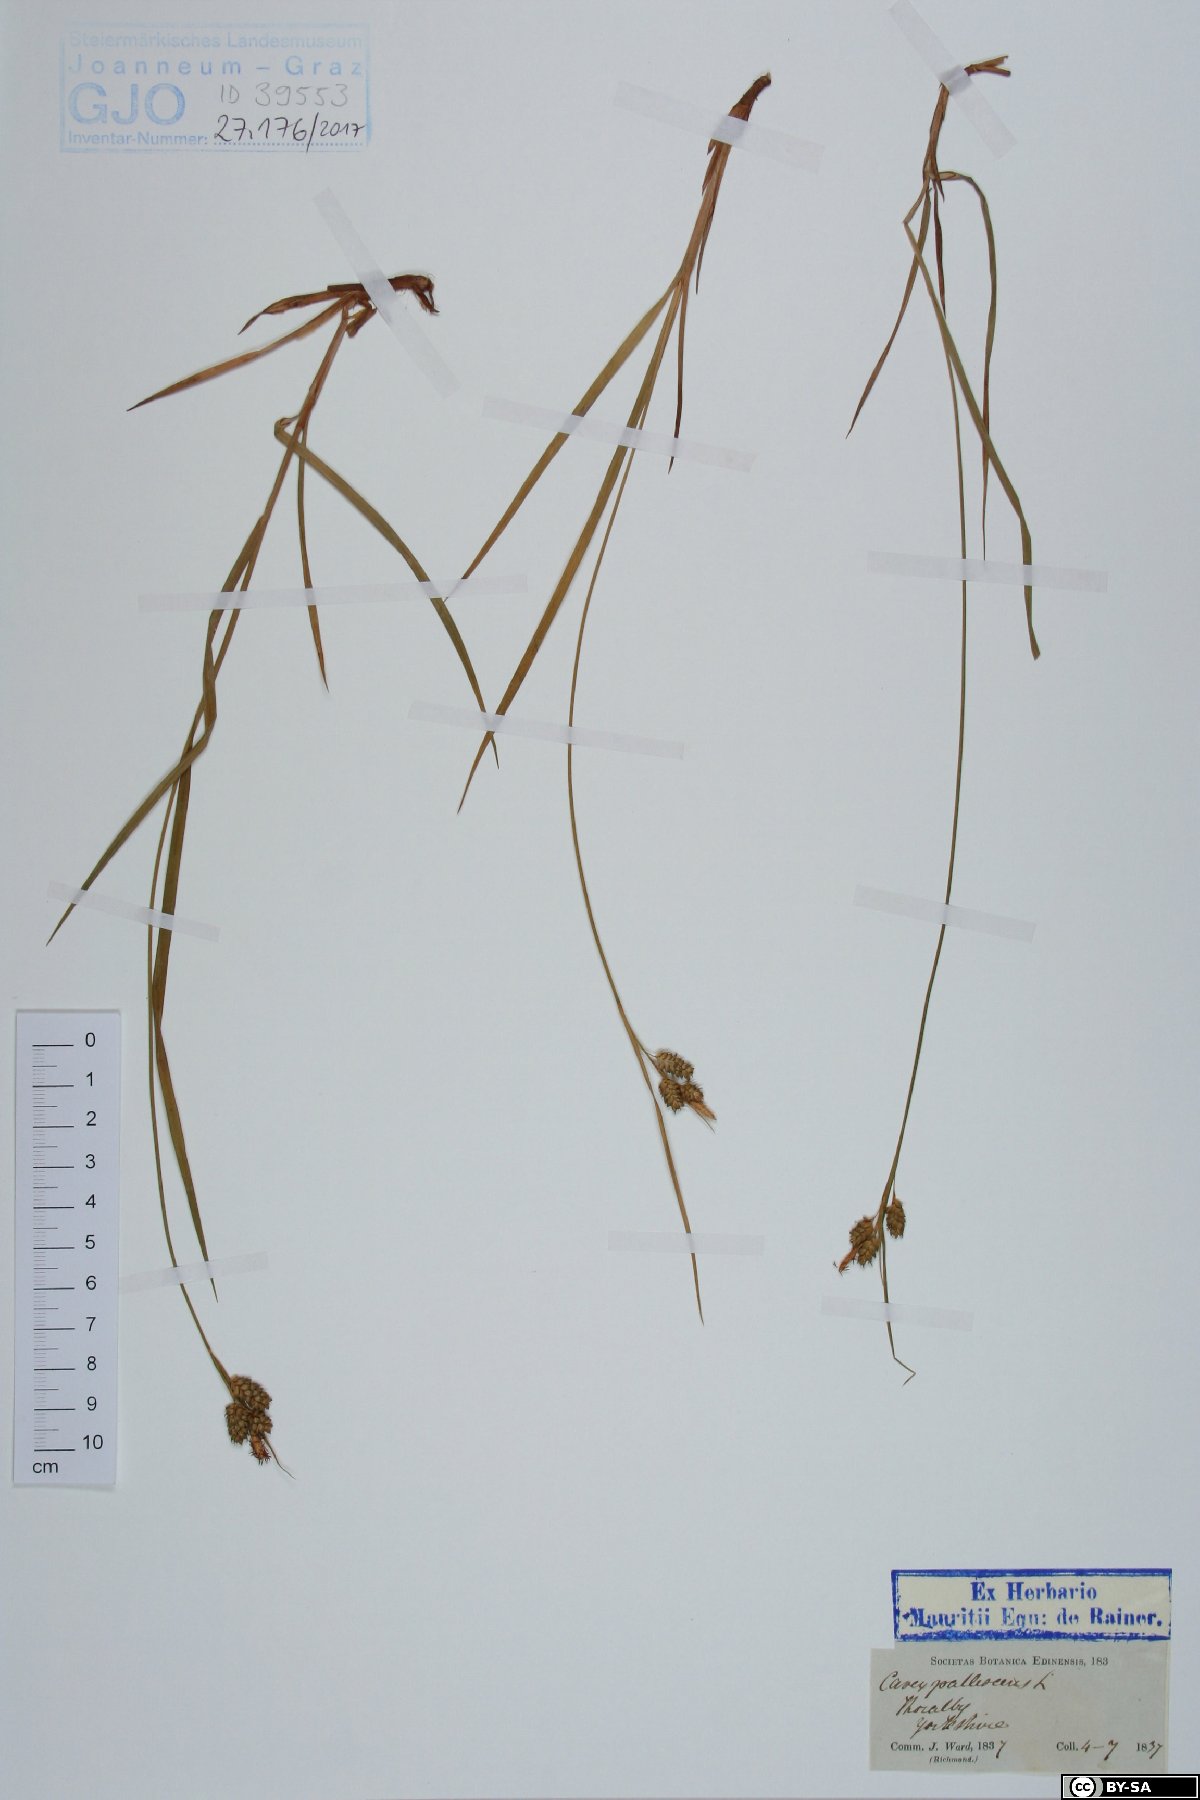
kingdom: Plantae
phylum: Tracheophyta
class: Liliopsida
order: Poales
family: Cyperaceae
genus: Carex
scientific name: Carex pallescens
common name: Pale sedge
